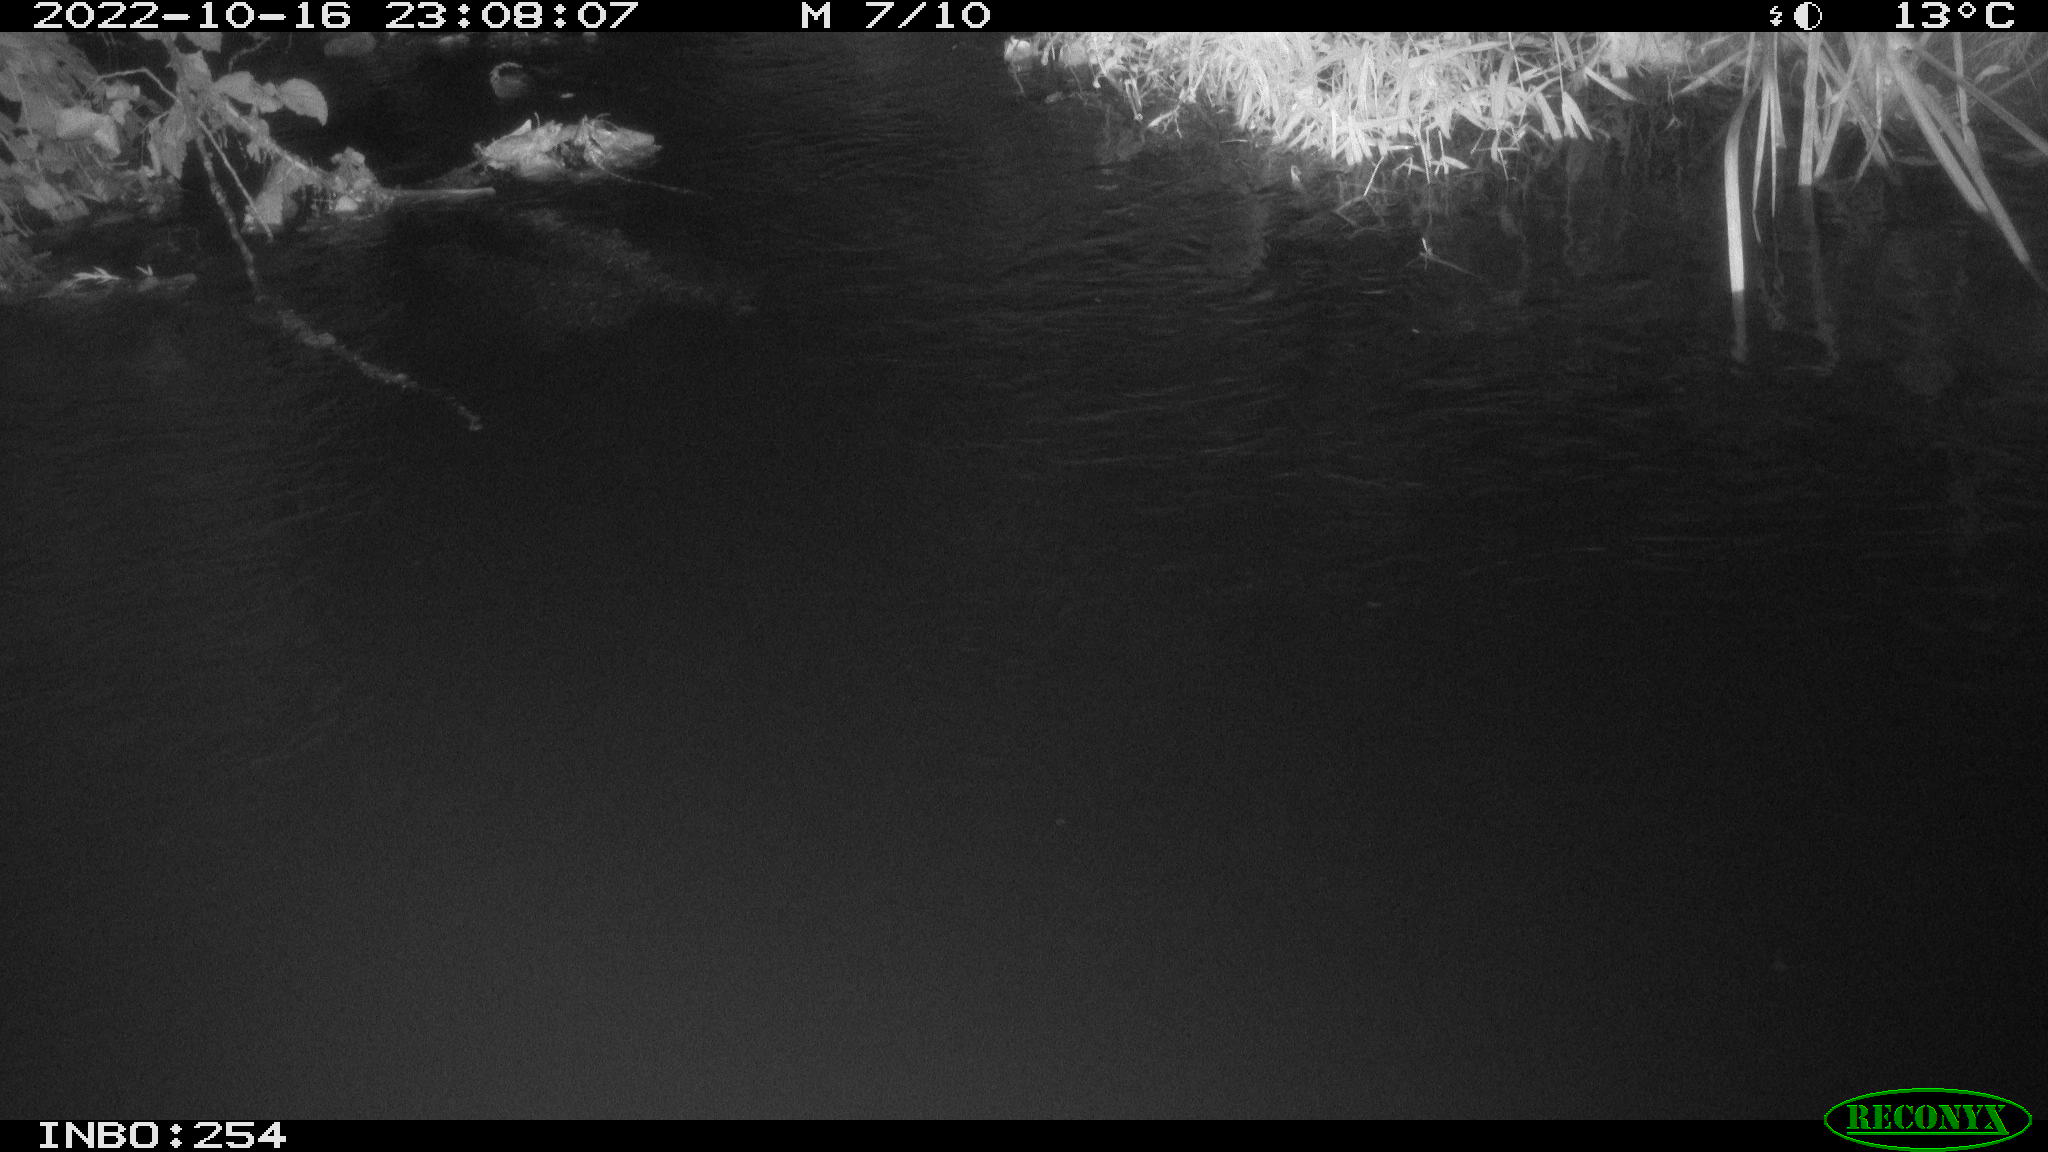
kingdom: Animalia
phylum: Chordata
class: Aves
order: Anseriformes
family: Anatidae
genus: Anas
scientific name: Anas
